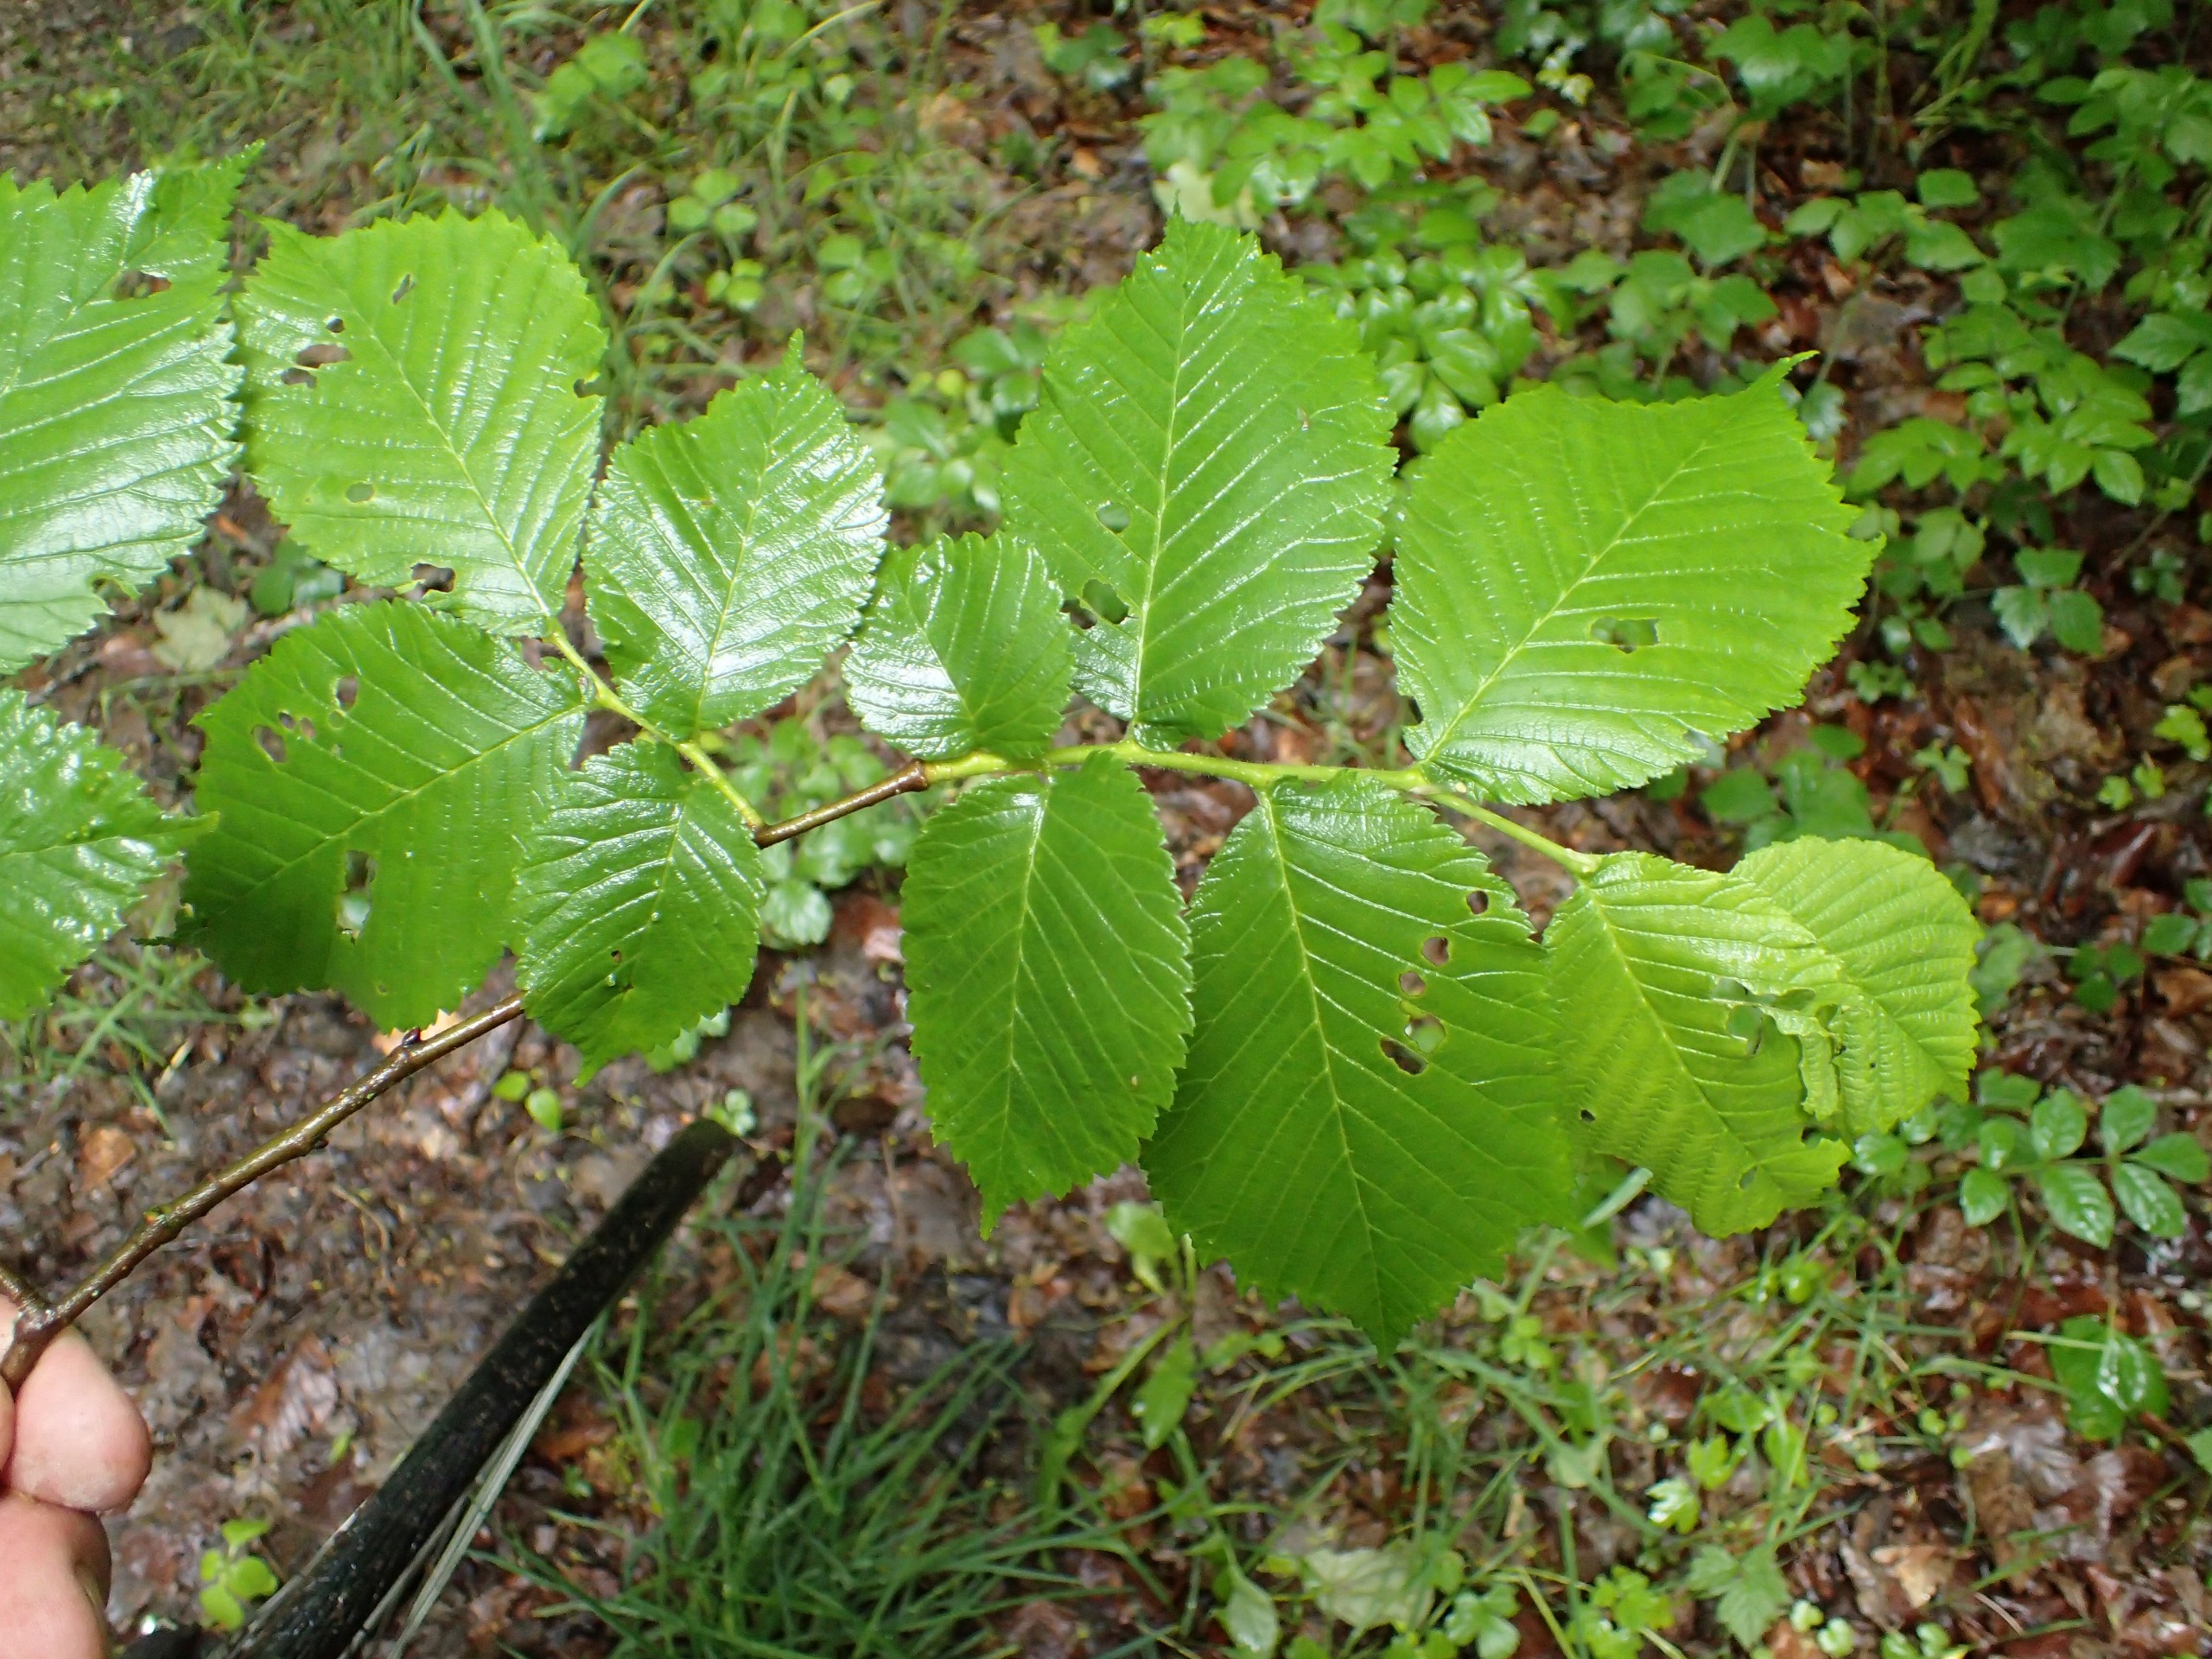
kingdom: Plantae
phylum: Tracheophyta
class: Magnoliopsida
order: Rosales
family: Ulmaceae
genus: Ulmus
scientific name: Ulmus glabra
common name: Skov-elm/storbladet elm
